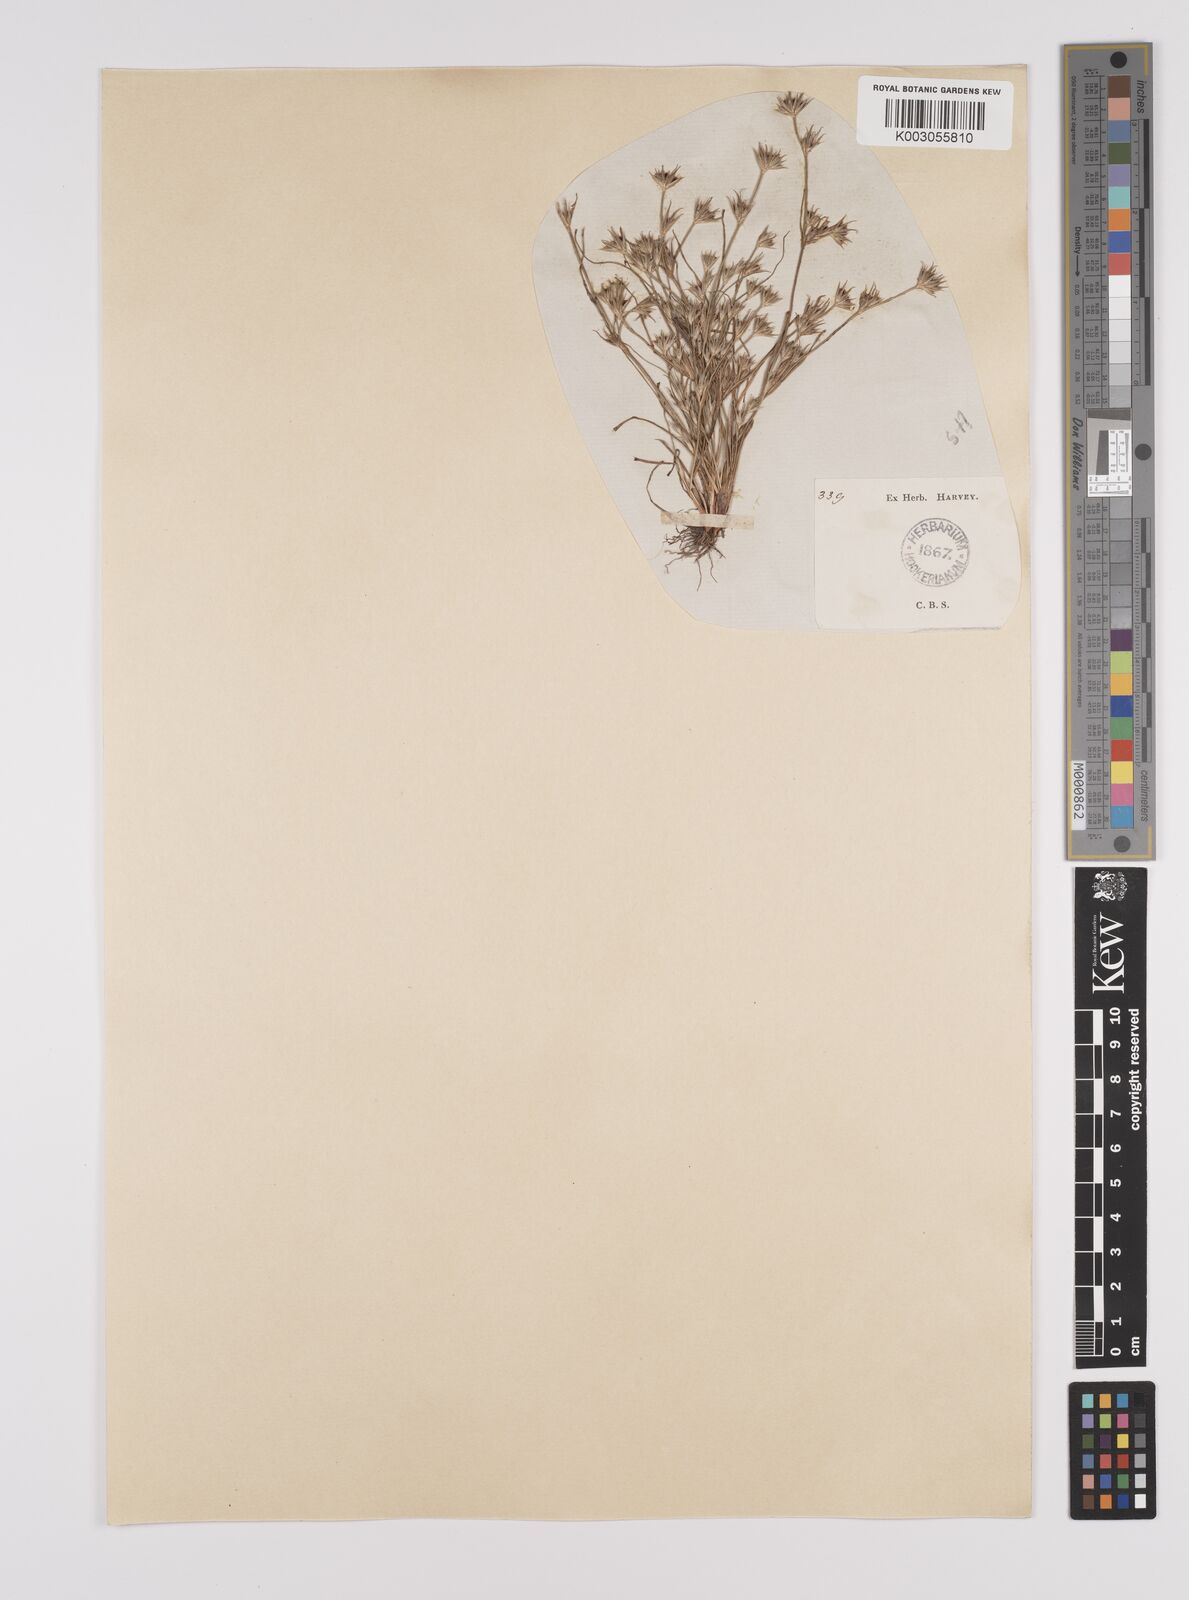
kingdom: Plantae
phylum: Tracheophyta
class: Liliopsida
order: Poales
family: Juncaceae
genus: Juncus
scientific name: Juncus bufonius
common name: Toad rush
